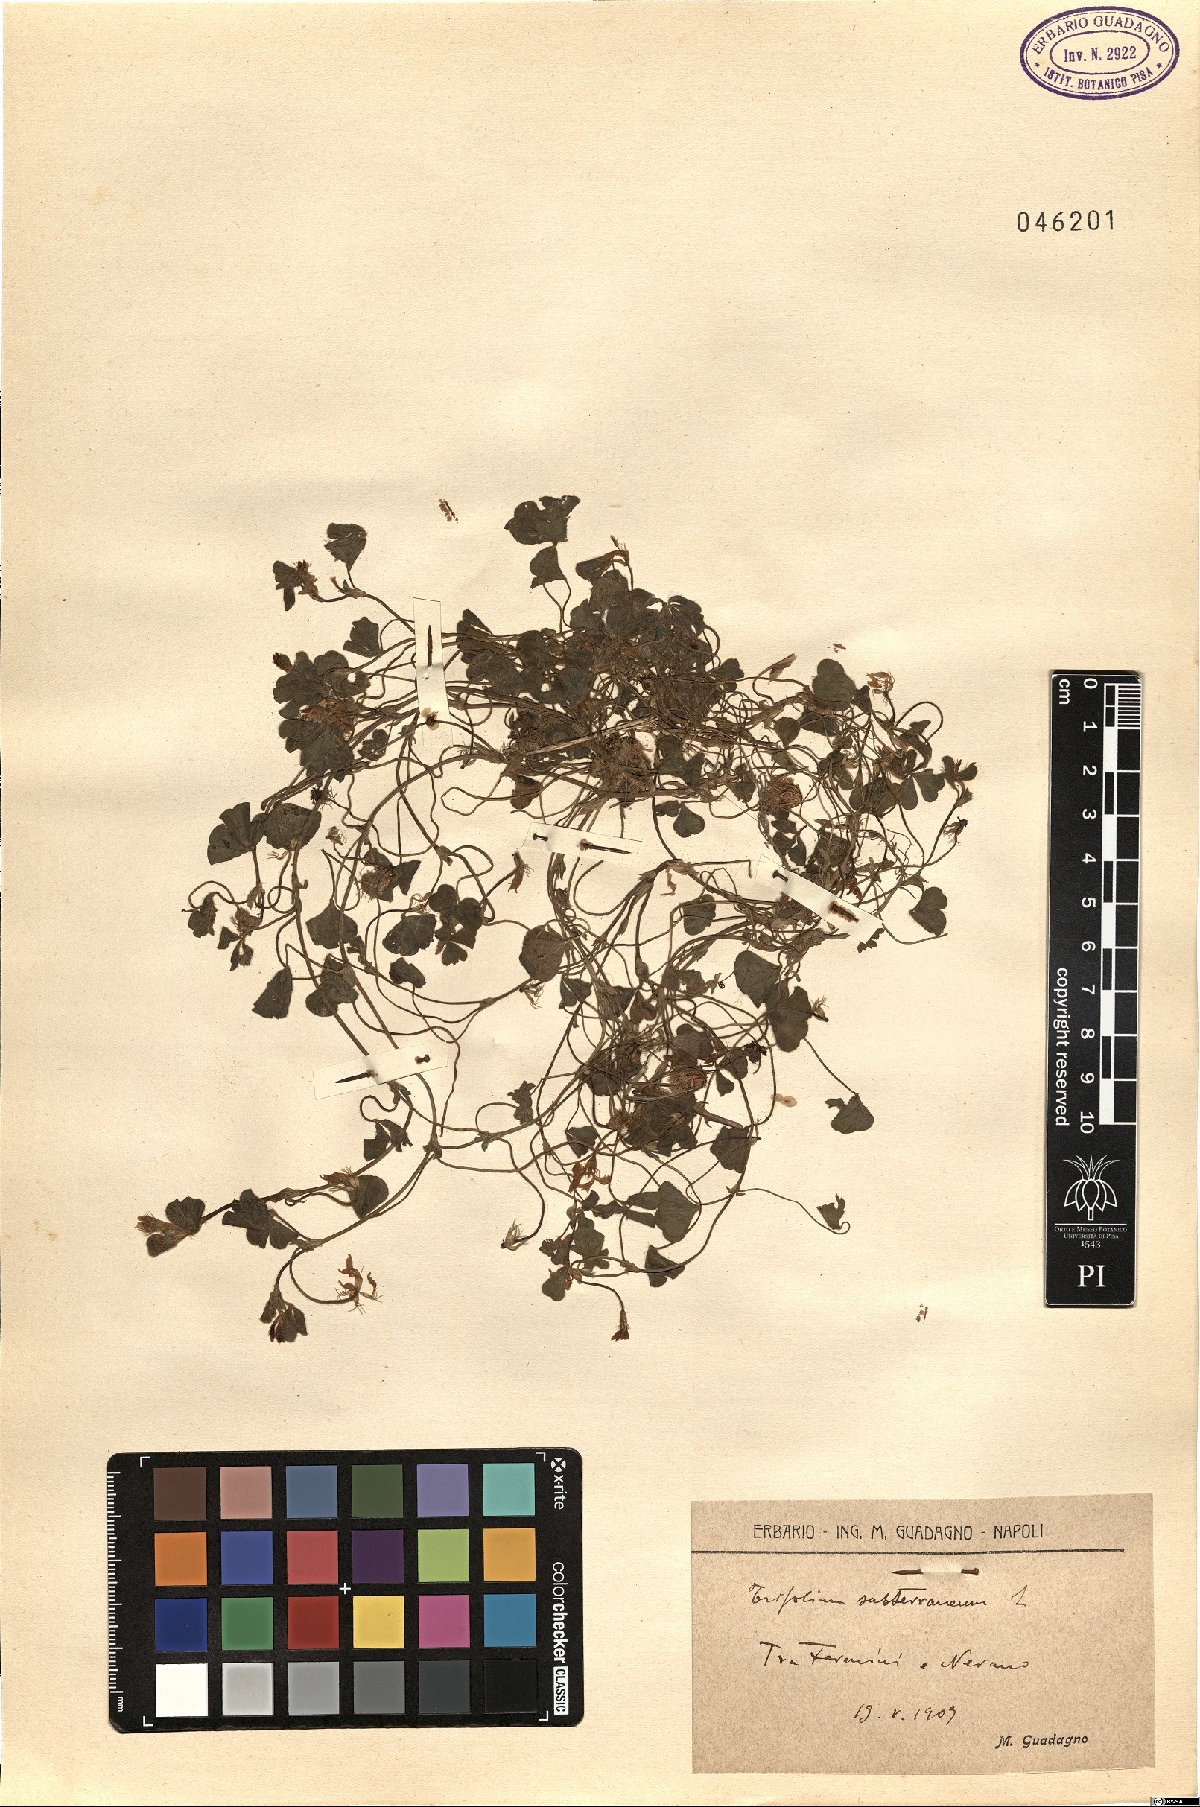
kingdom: Plantae
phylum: Tracheophyta
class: Magnoliopsida
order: Fabales
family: Fabaceae
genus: Trifolium
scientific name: Trifolium subterraneum
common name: Subterranean clover
